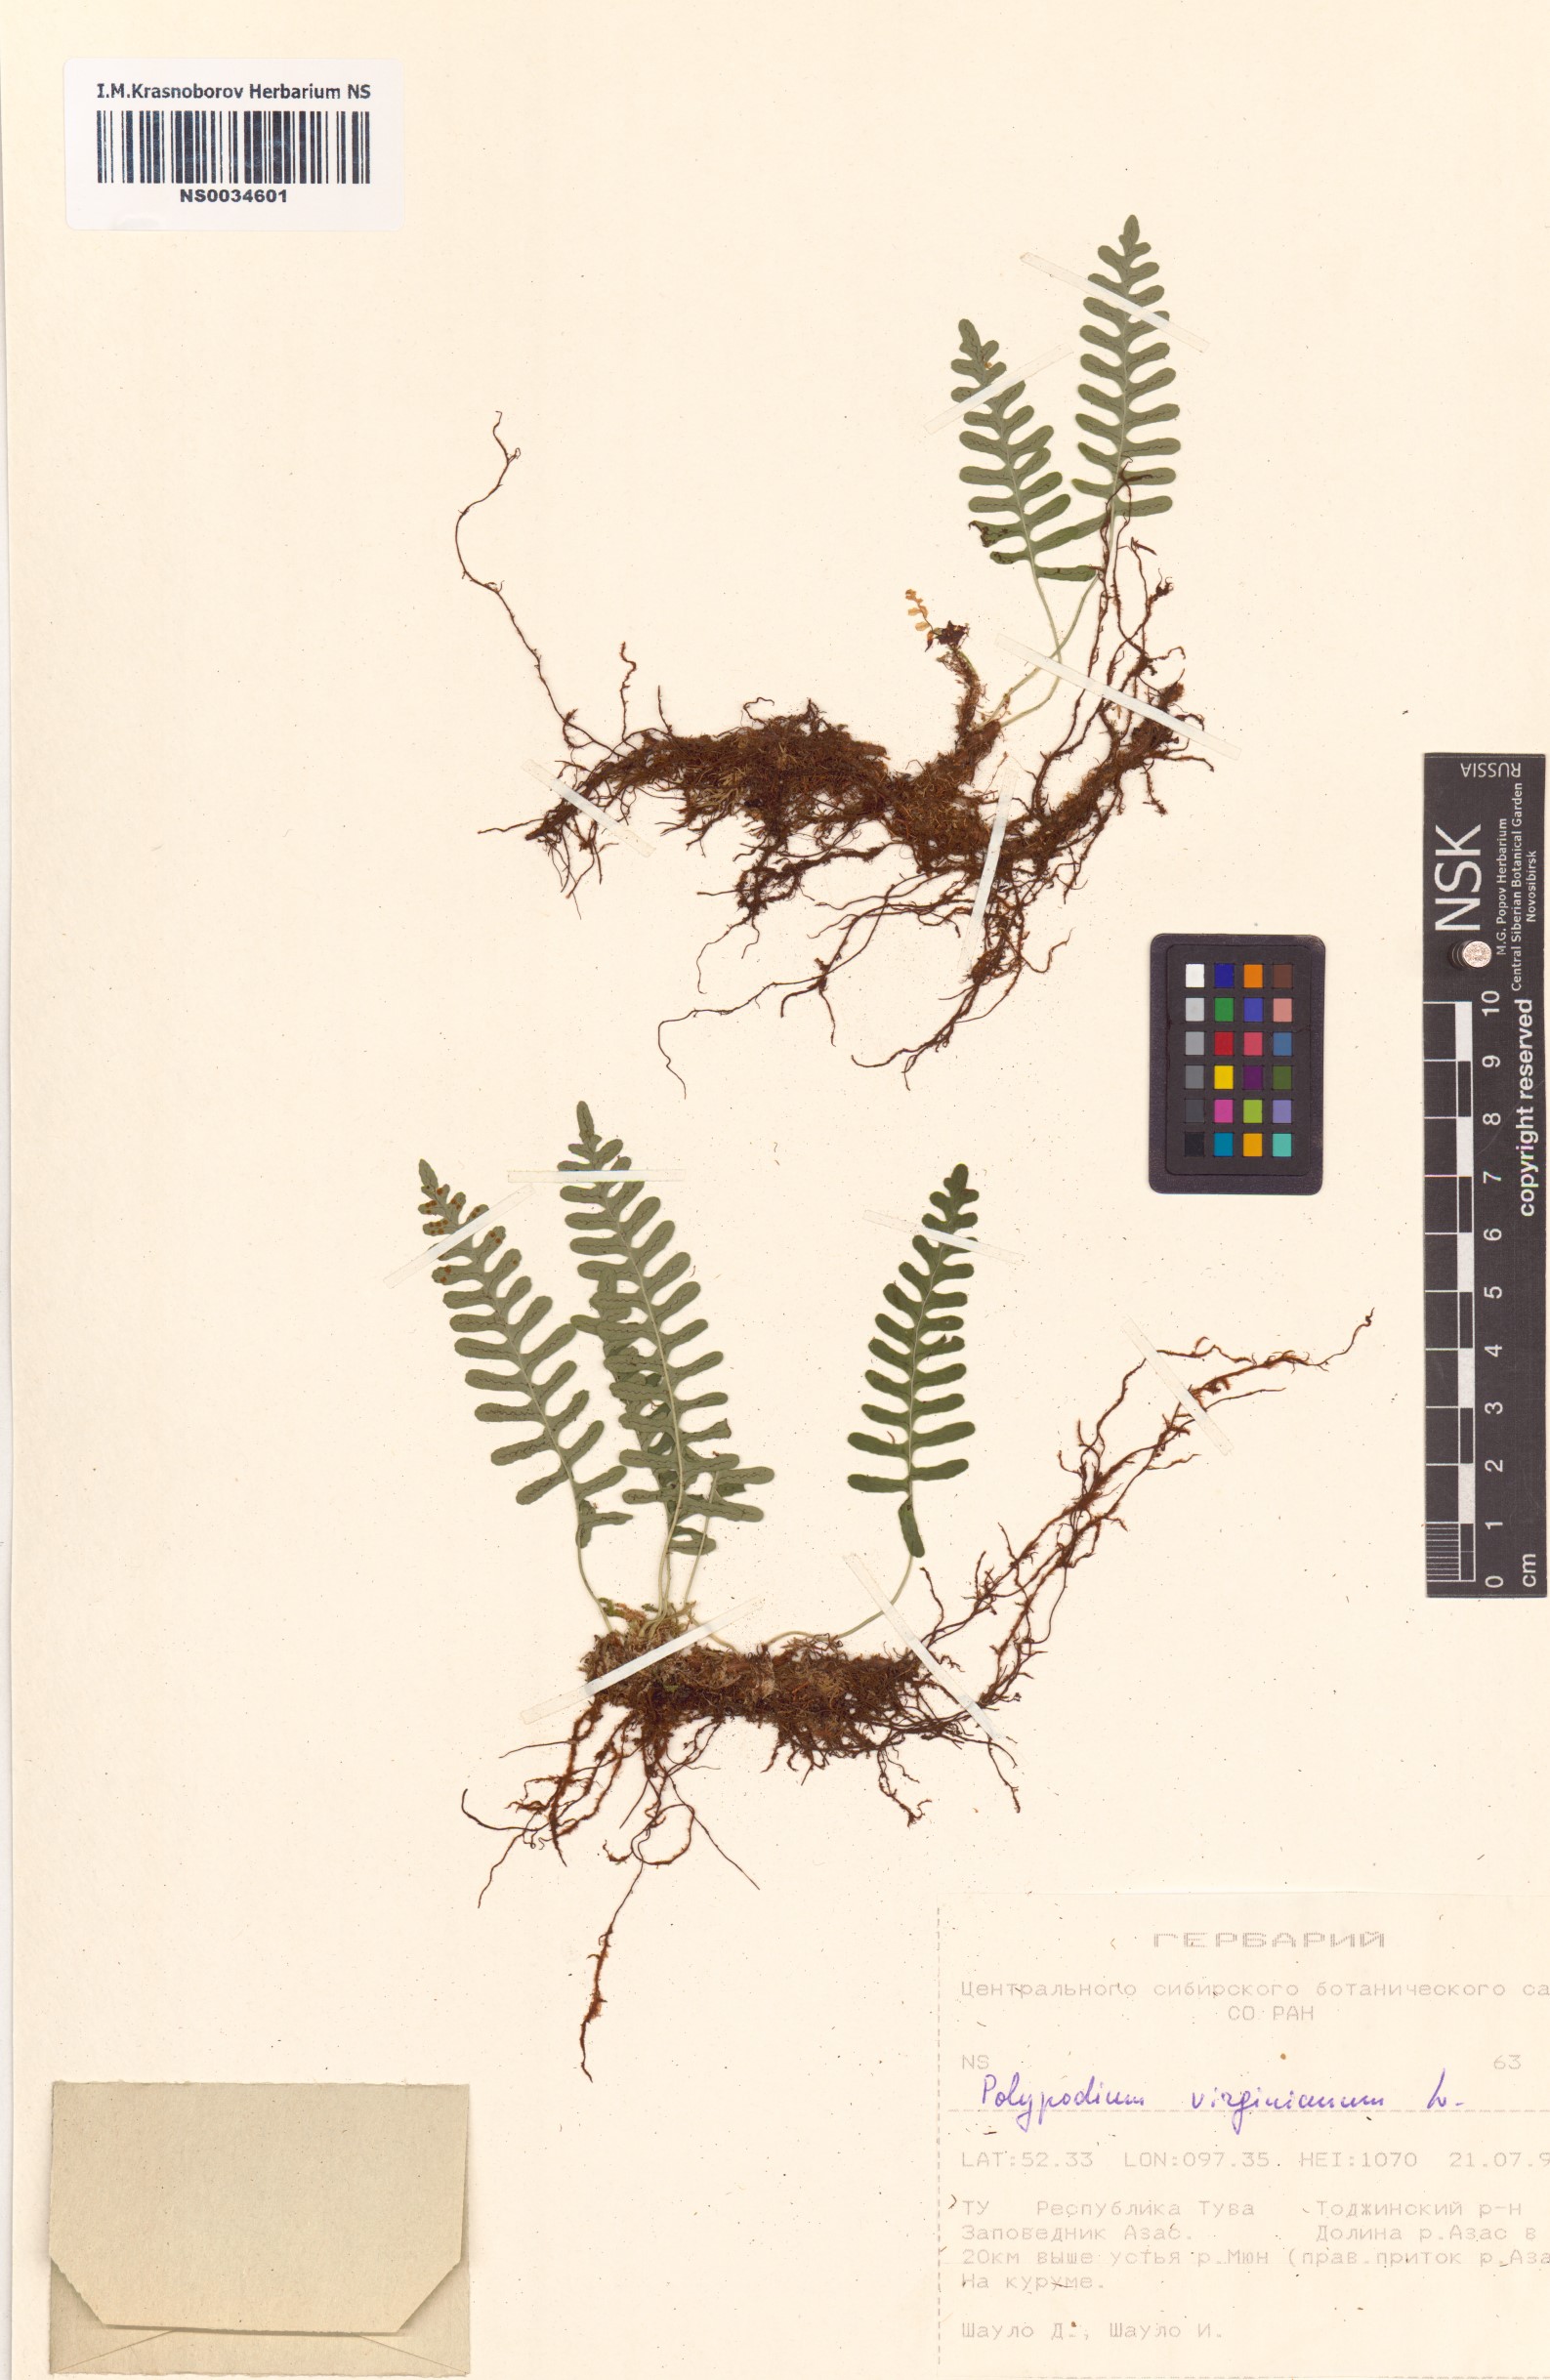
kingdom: Plantae
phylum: Tracheophyta
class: Polypodiopsida
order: Polypodiales
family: Polypodiaceae
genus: Polypodium
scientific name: Polypodium virginianum
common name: American wall fern
